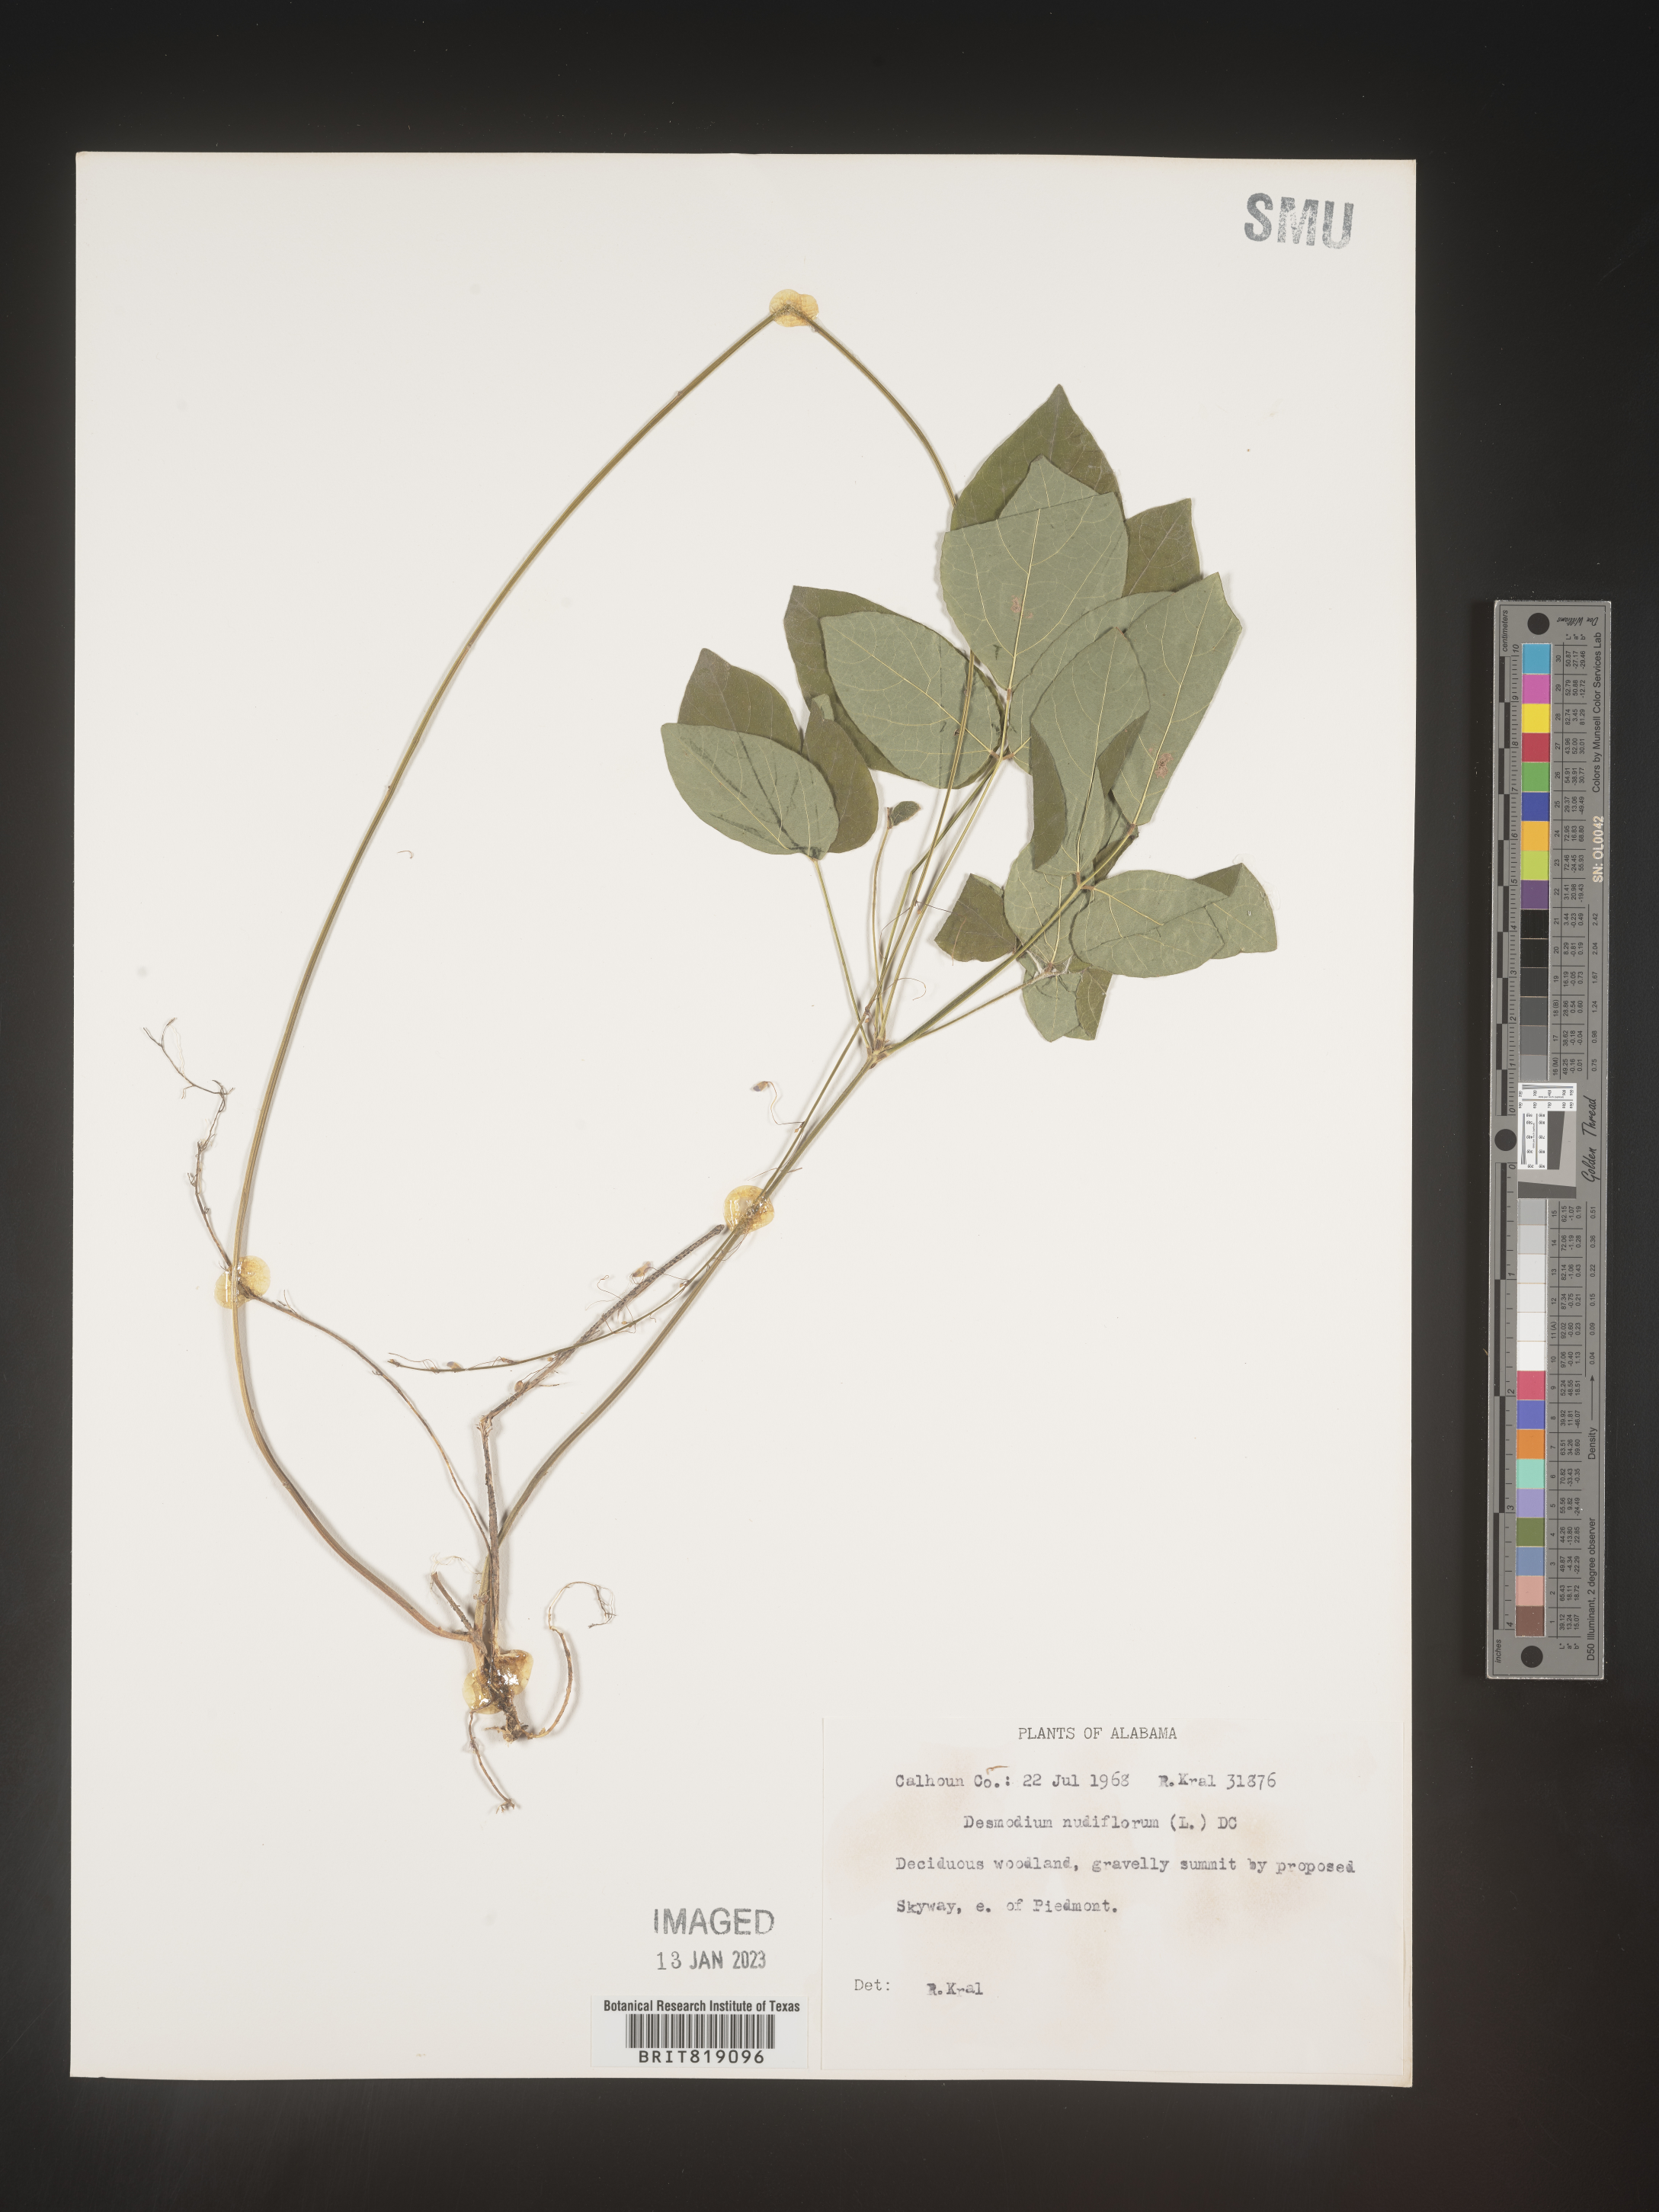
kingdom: Plantae
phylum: Tracheophyta
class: Magnoliopsida
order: Fabales
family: Fabaceae
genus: Hylodesmum
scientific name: Hylodesmum nudiflorum
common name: Bare-stemmed tick-trefoil
